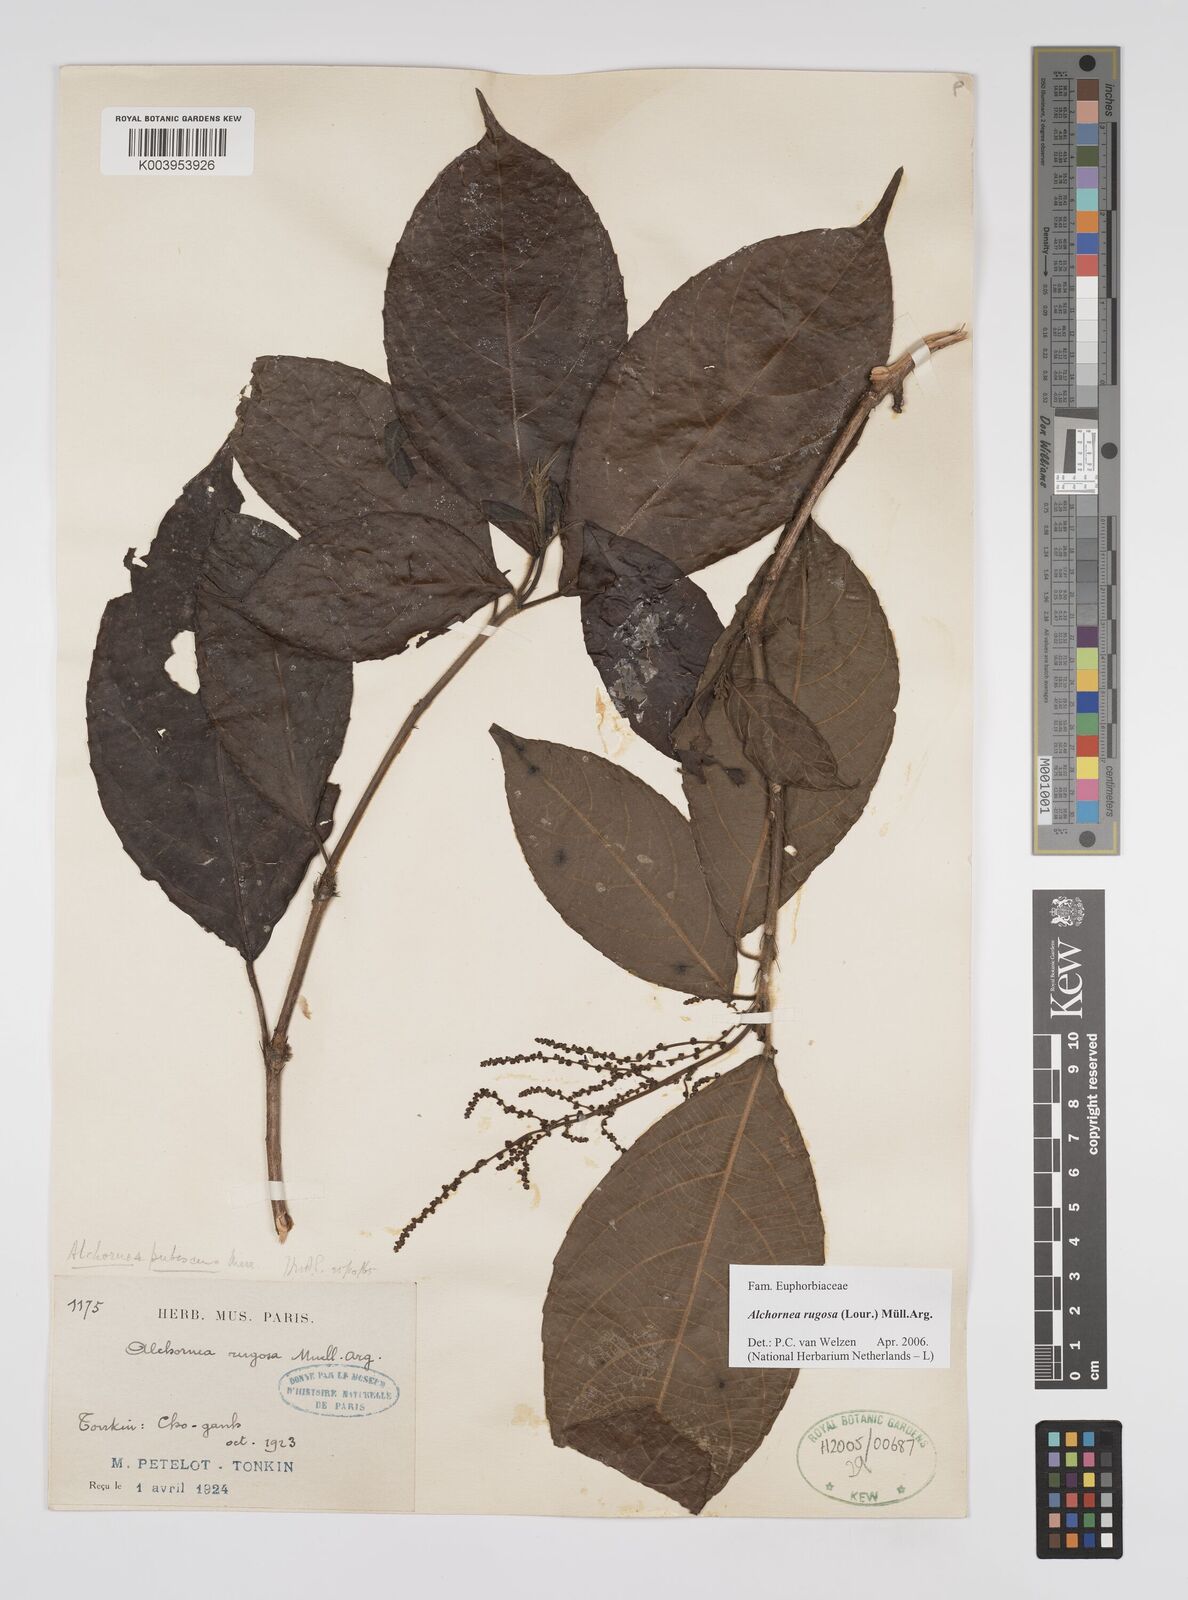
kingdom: Plantae
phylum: Tracheophyta
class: Magnoliopsida
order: Malpighiales
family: Euphorbiaceae
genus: Alchornea
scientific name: Alchornea rugosa
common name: Alchorntree
